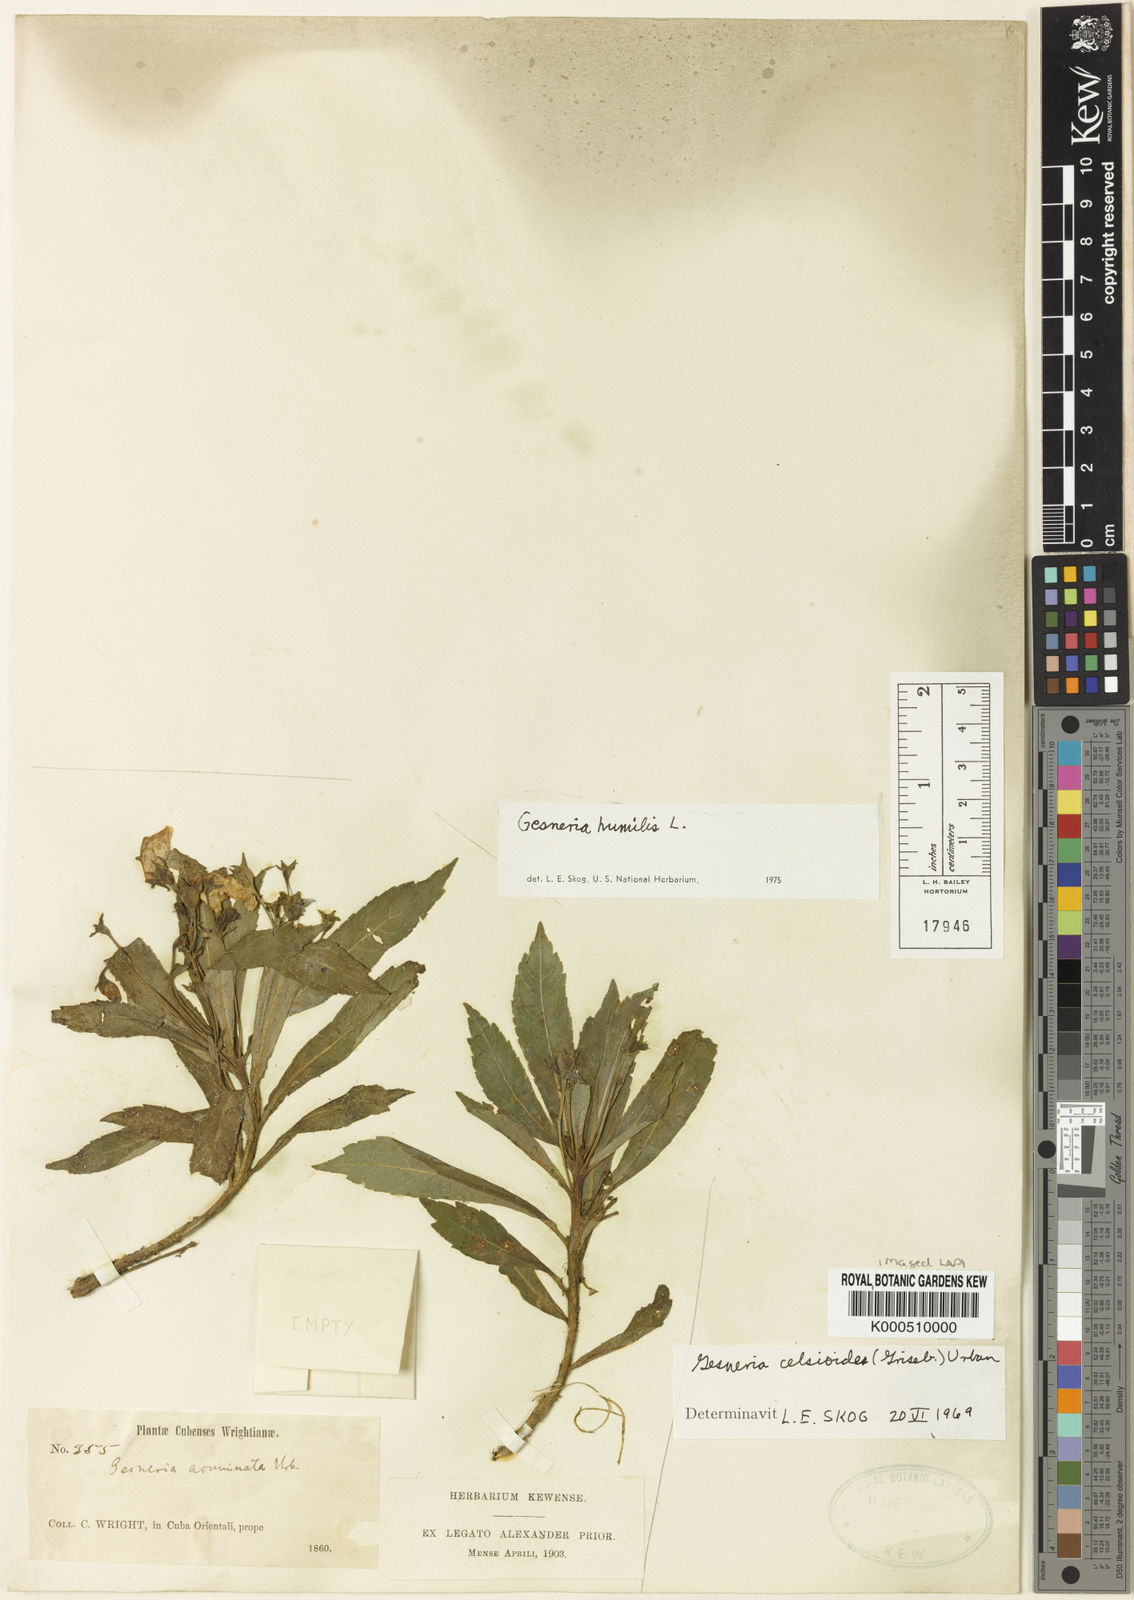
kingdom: Plantae
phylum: Tracheophyta
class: Magnoliopsida
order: Lamiales
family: Gesneriaceae
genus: Gesneria
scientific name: Gesneria humilis
